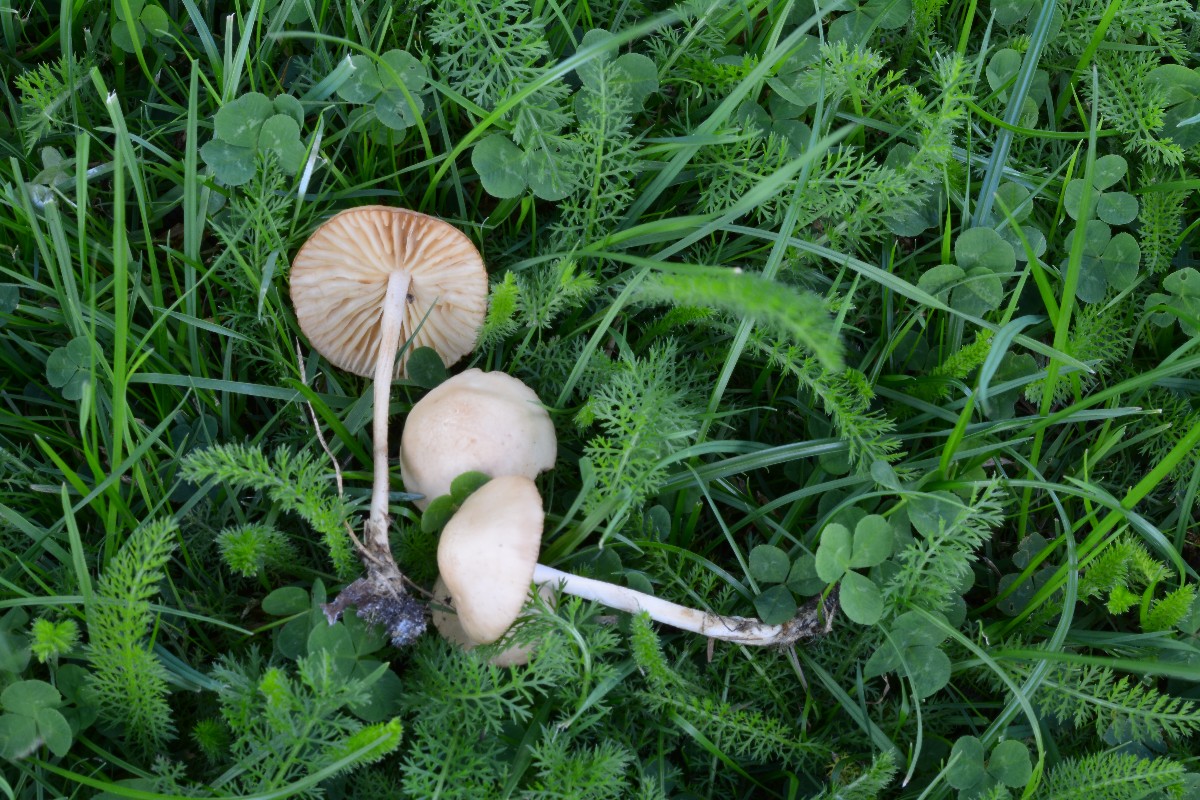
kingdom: Fungi
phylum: Basidiomycota
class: Agaricomycetes
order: Agaricales
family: Marasmiaceae
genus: Marasmius
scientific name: Marasmius oreades
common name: elledans-bruskhat
